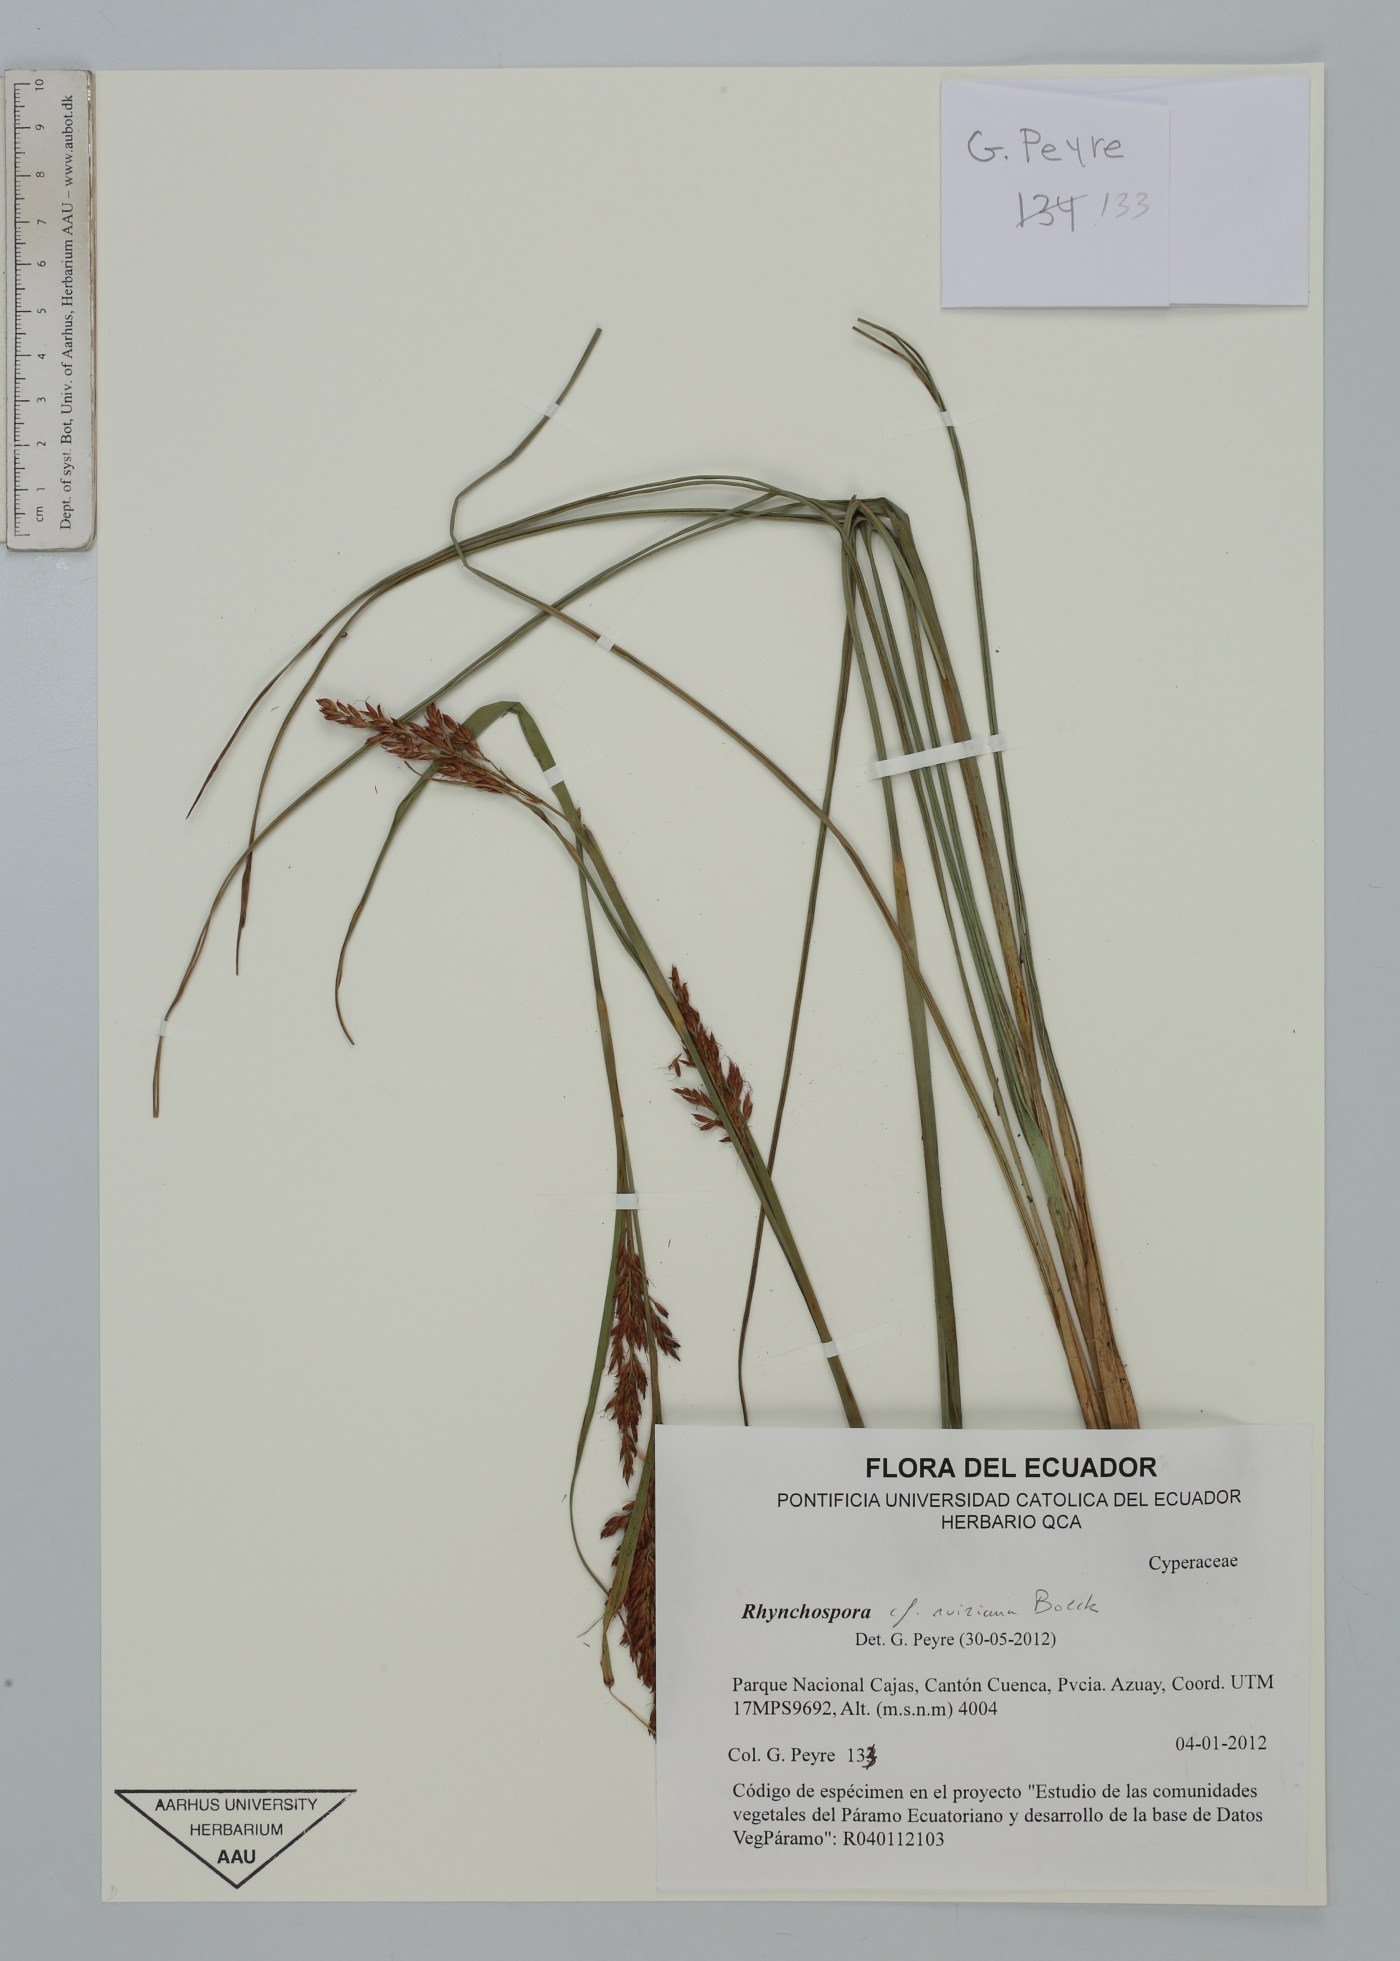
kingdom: Plantae
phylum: Tracheophyta
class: Liliopsida
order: Poales
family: Cyperaceae
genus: Rhynchospora
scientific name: Rhynchospora ruiziana
